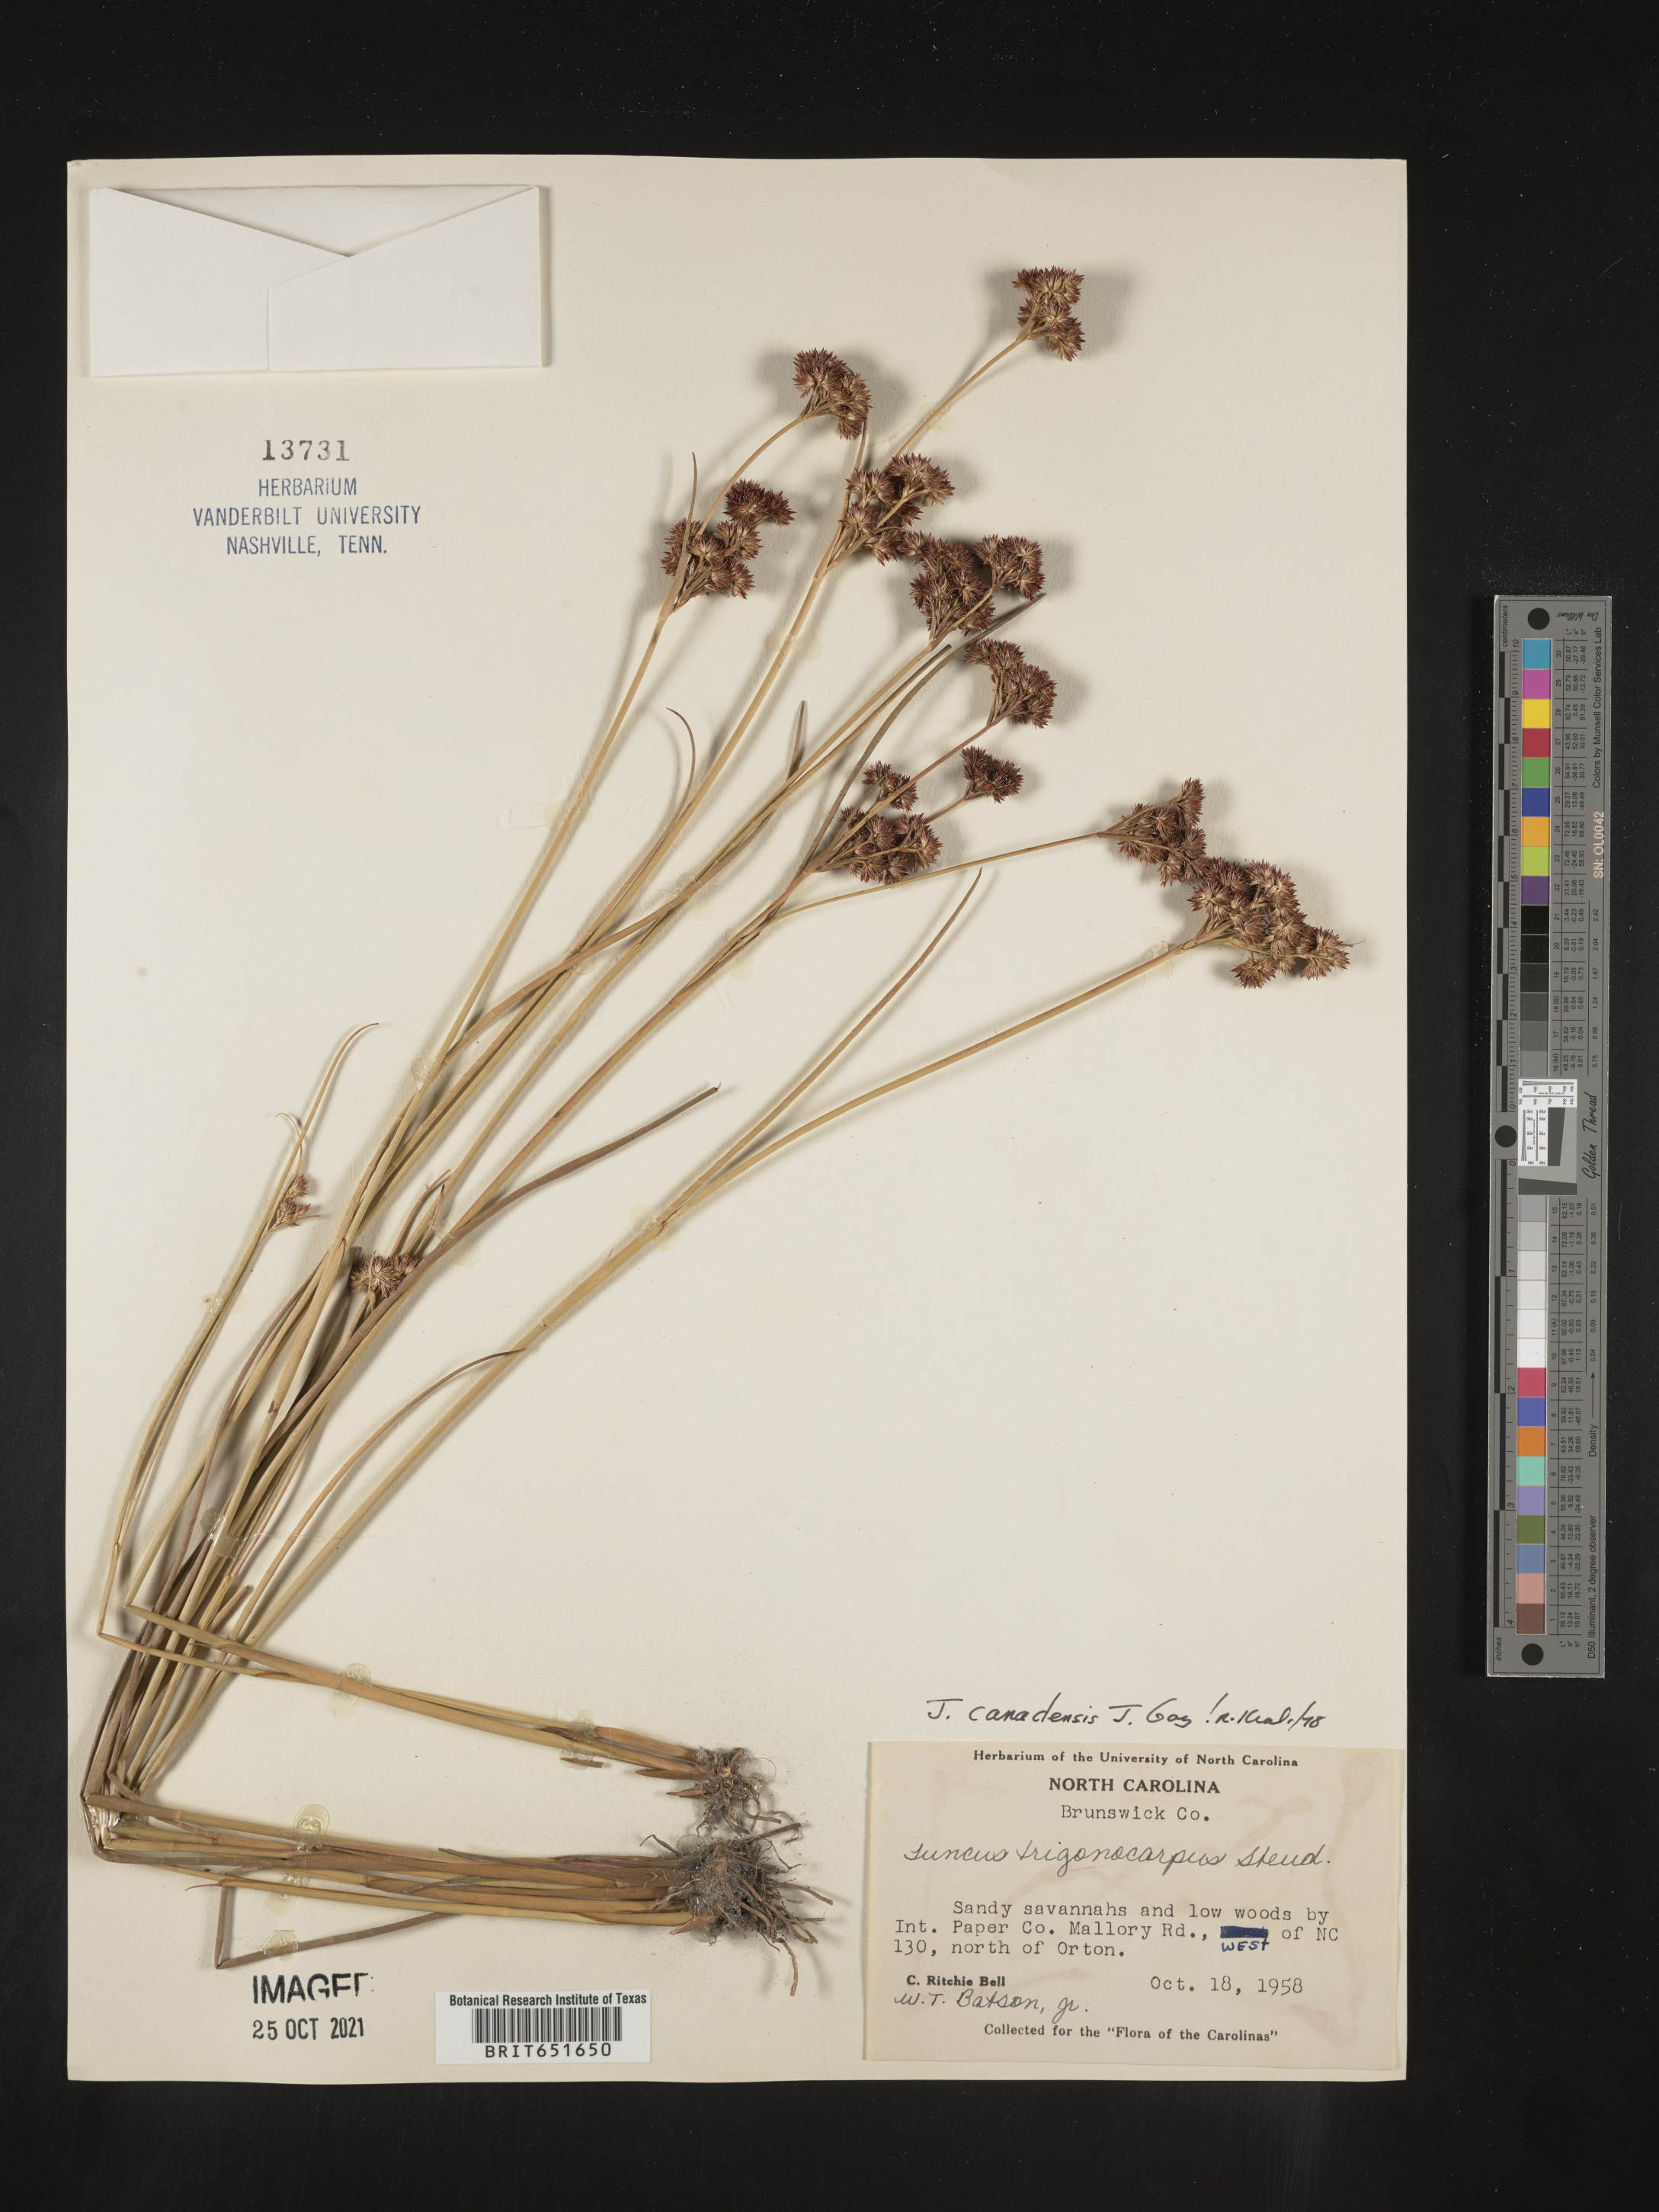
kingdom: Plantae
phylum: Tracheophyta
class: Liliopsida
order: Poales
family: Juncaceae
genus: Juncus
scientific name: Juncus canadensis
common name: Canada rush
